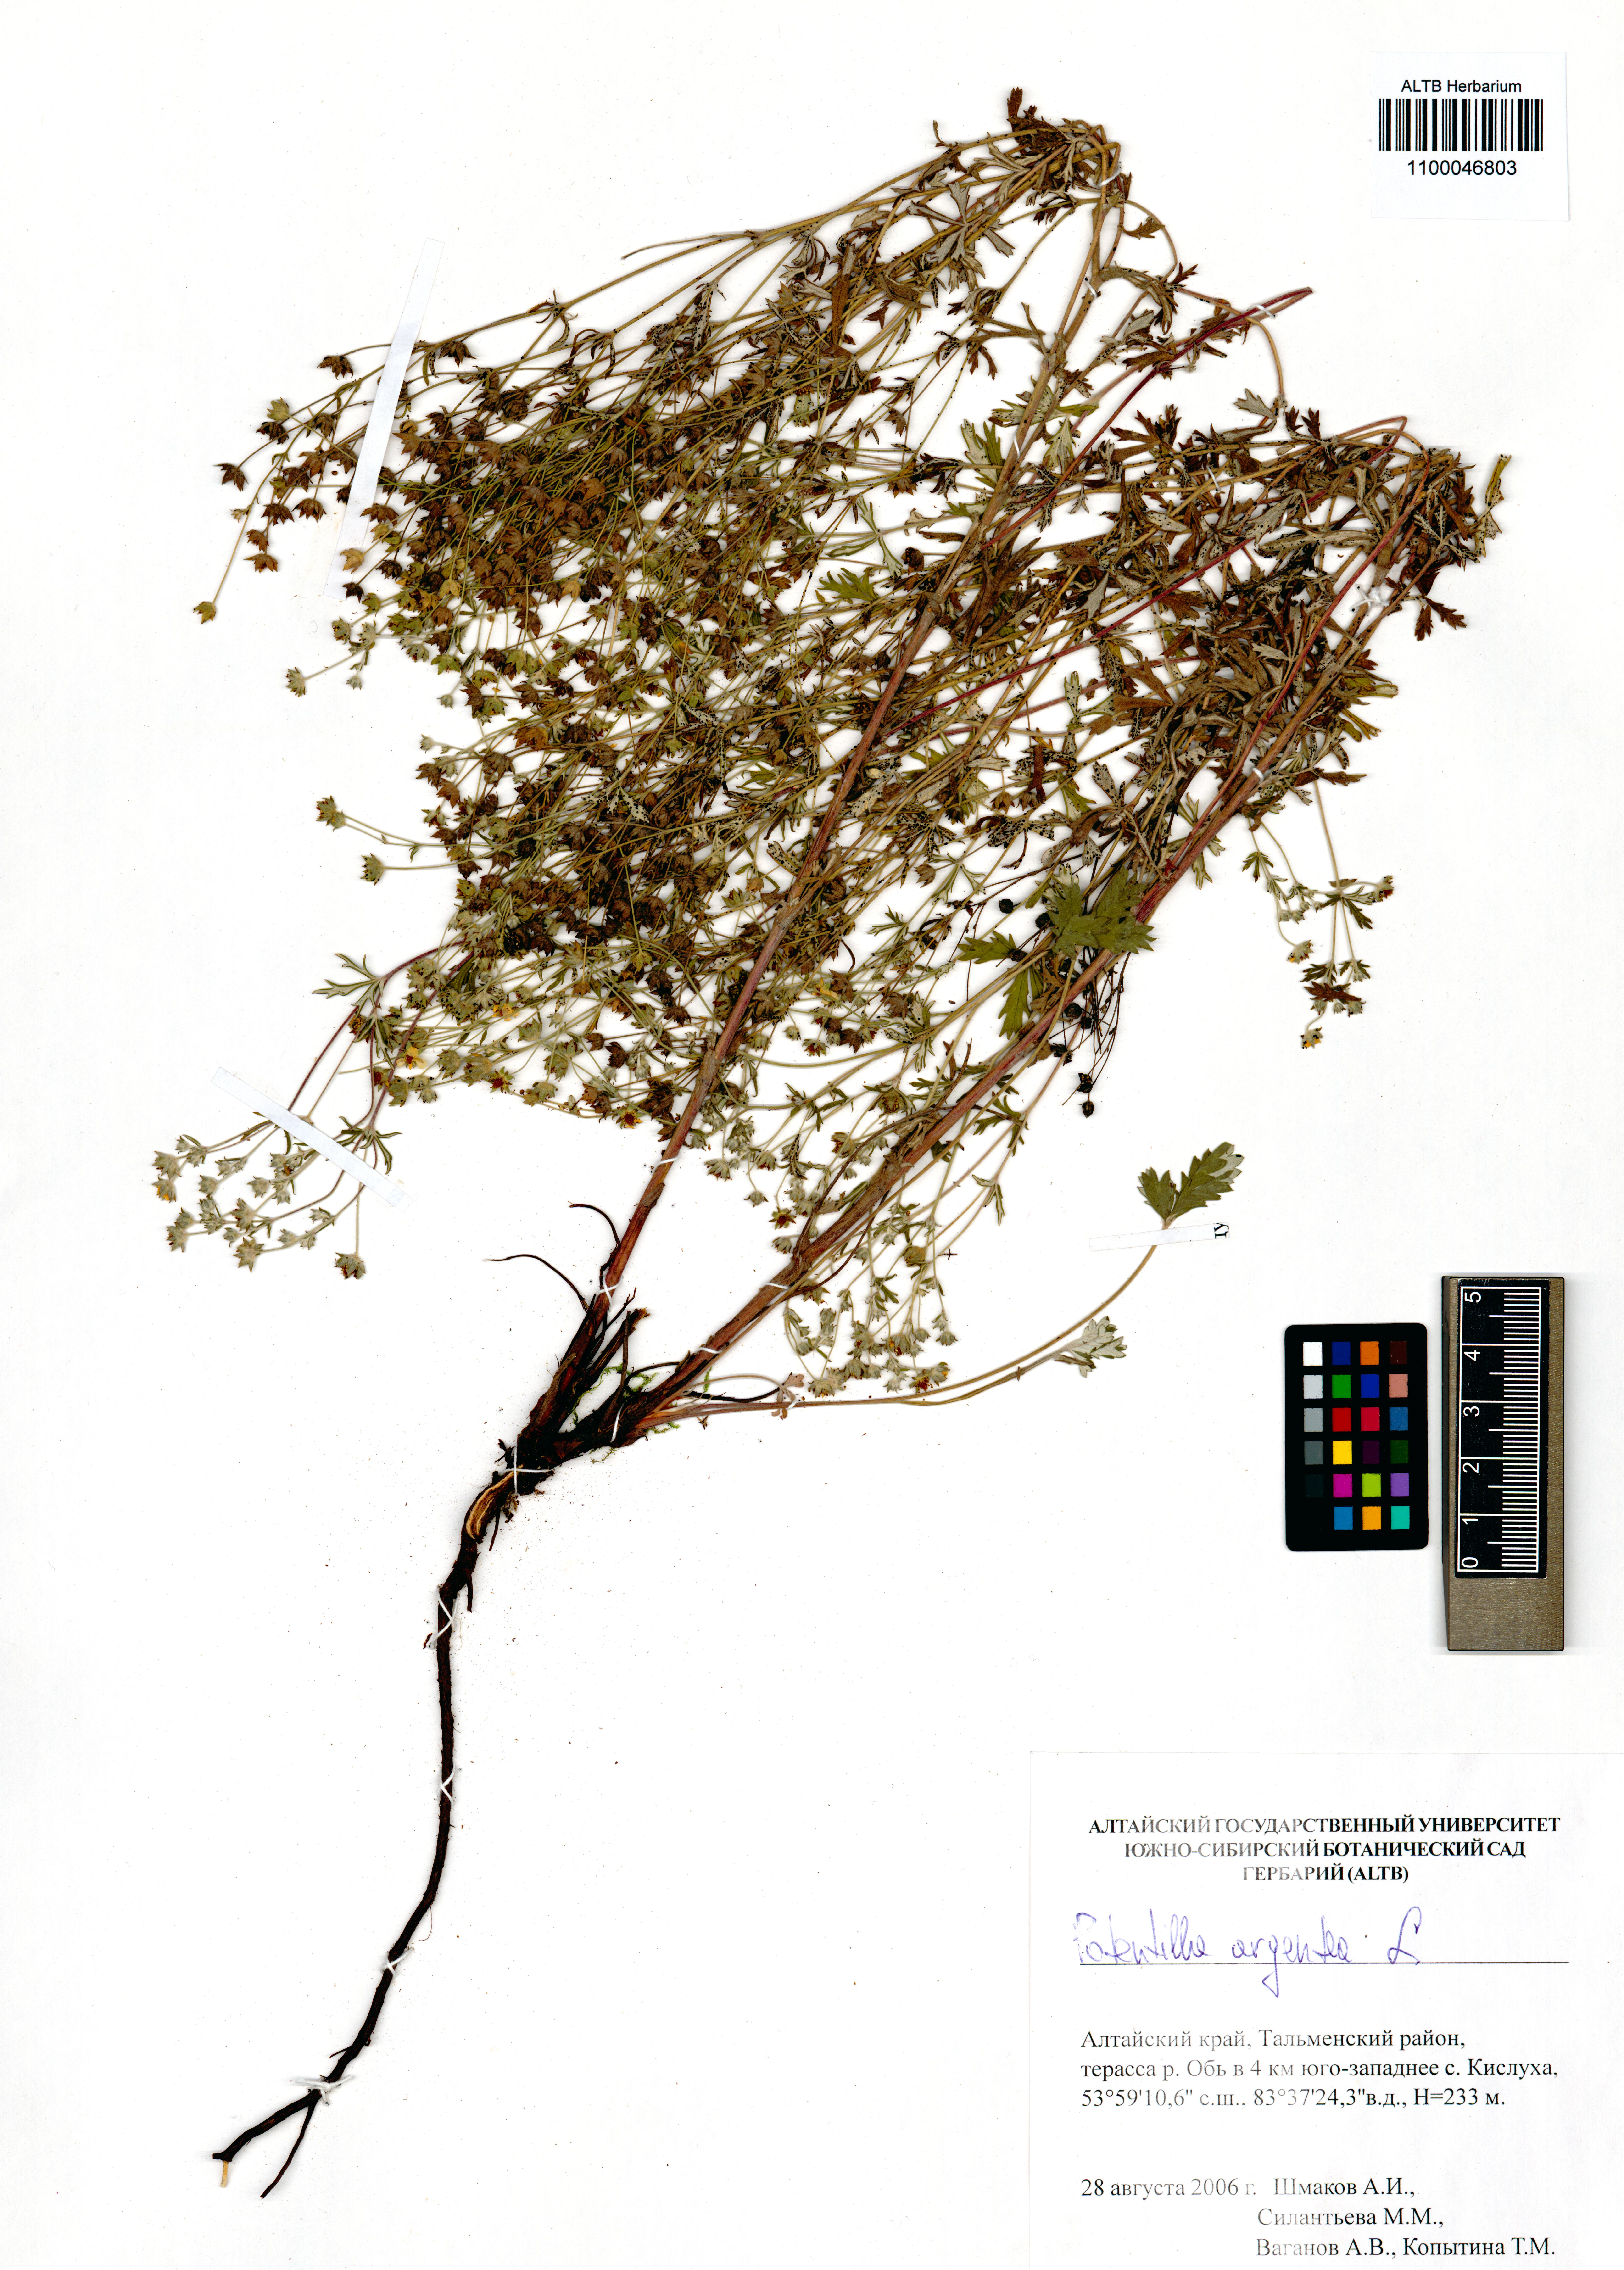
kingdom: Plantae
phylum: Tracheophyta
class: Magnoliopsida
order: Rosales
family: Rosaceae
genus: Potentilla
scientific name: Potentilla argentea
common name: Hoary cinquefoil
